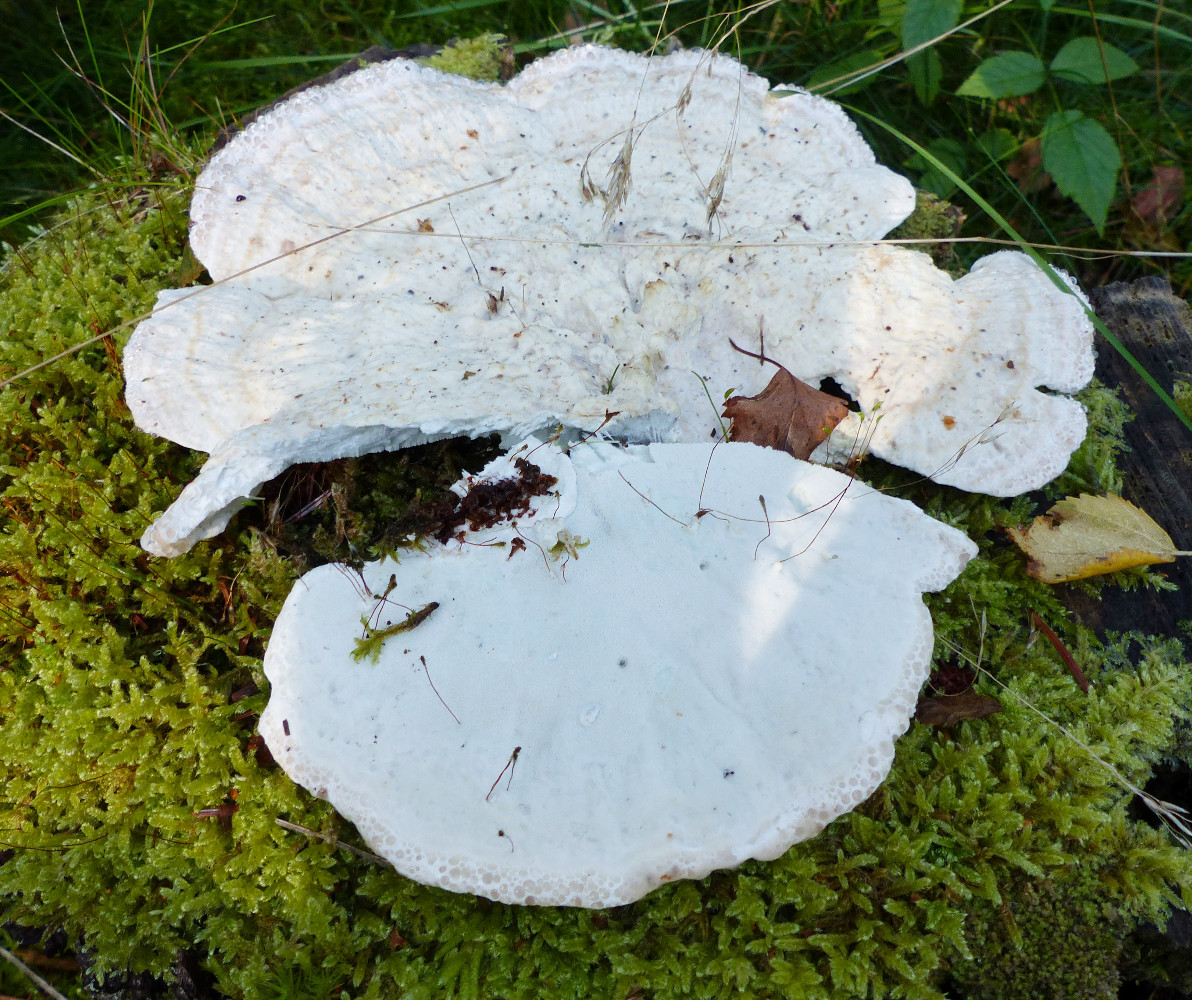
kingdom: Fungi
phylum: Basidiomycota
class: Agaricomycetes
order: Polyporales
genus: Calcipostia
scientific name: Calcipostia guttulata
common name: dråbe-kødporesvamp
